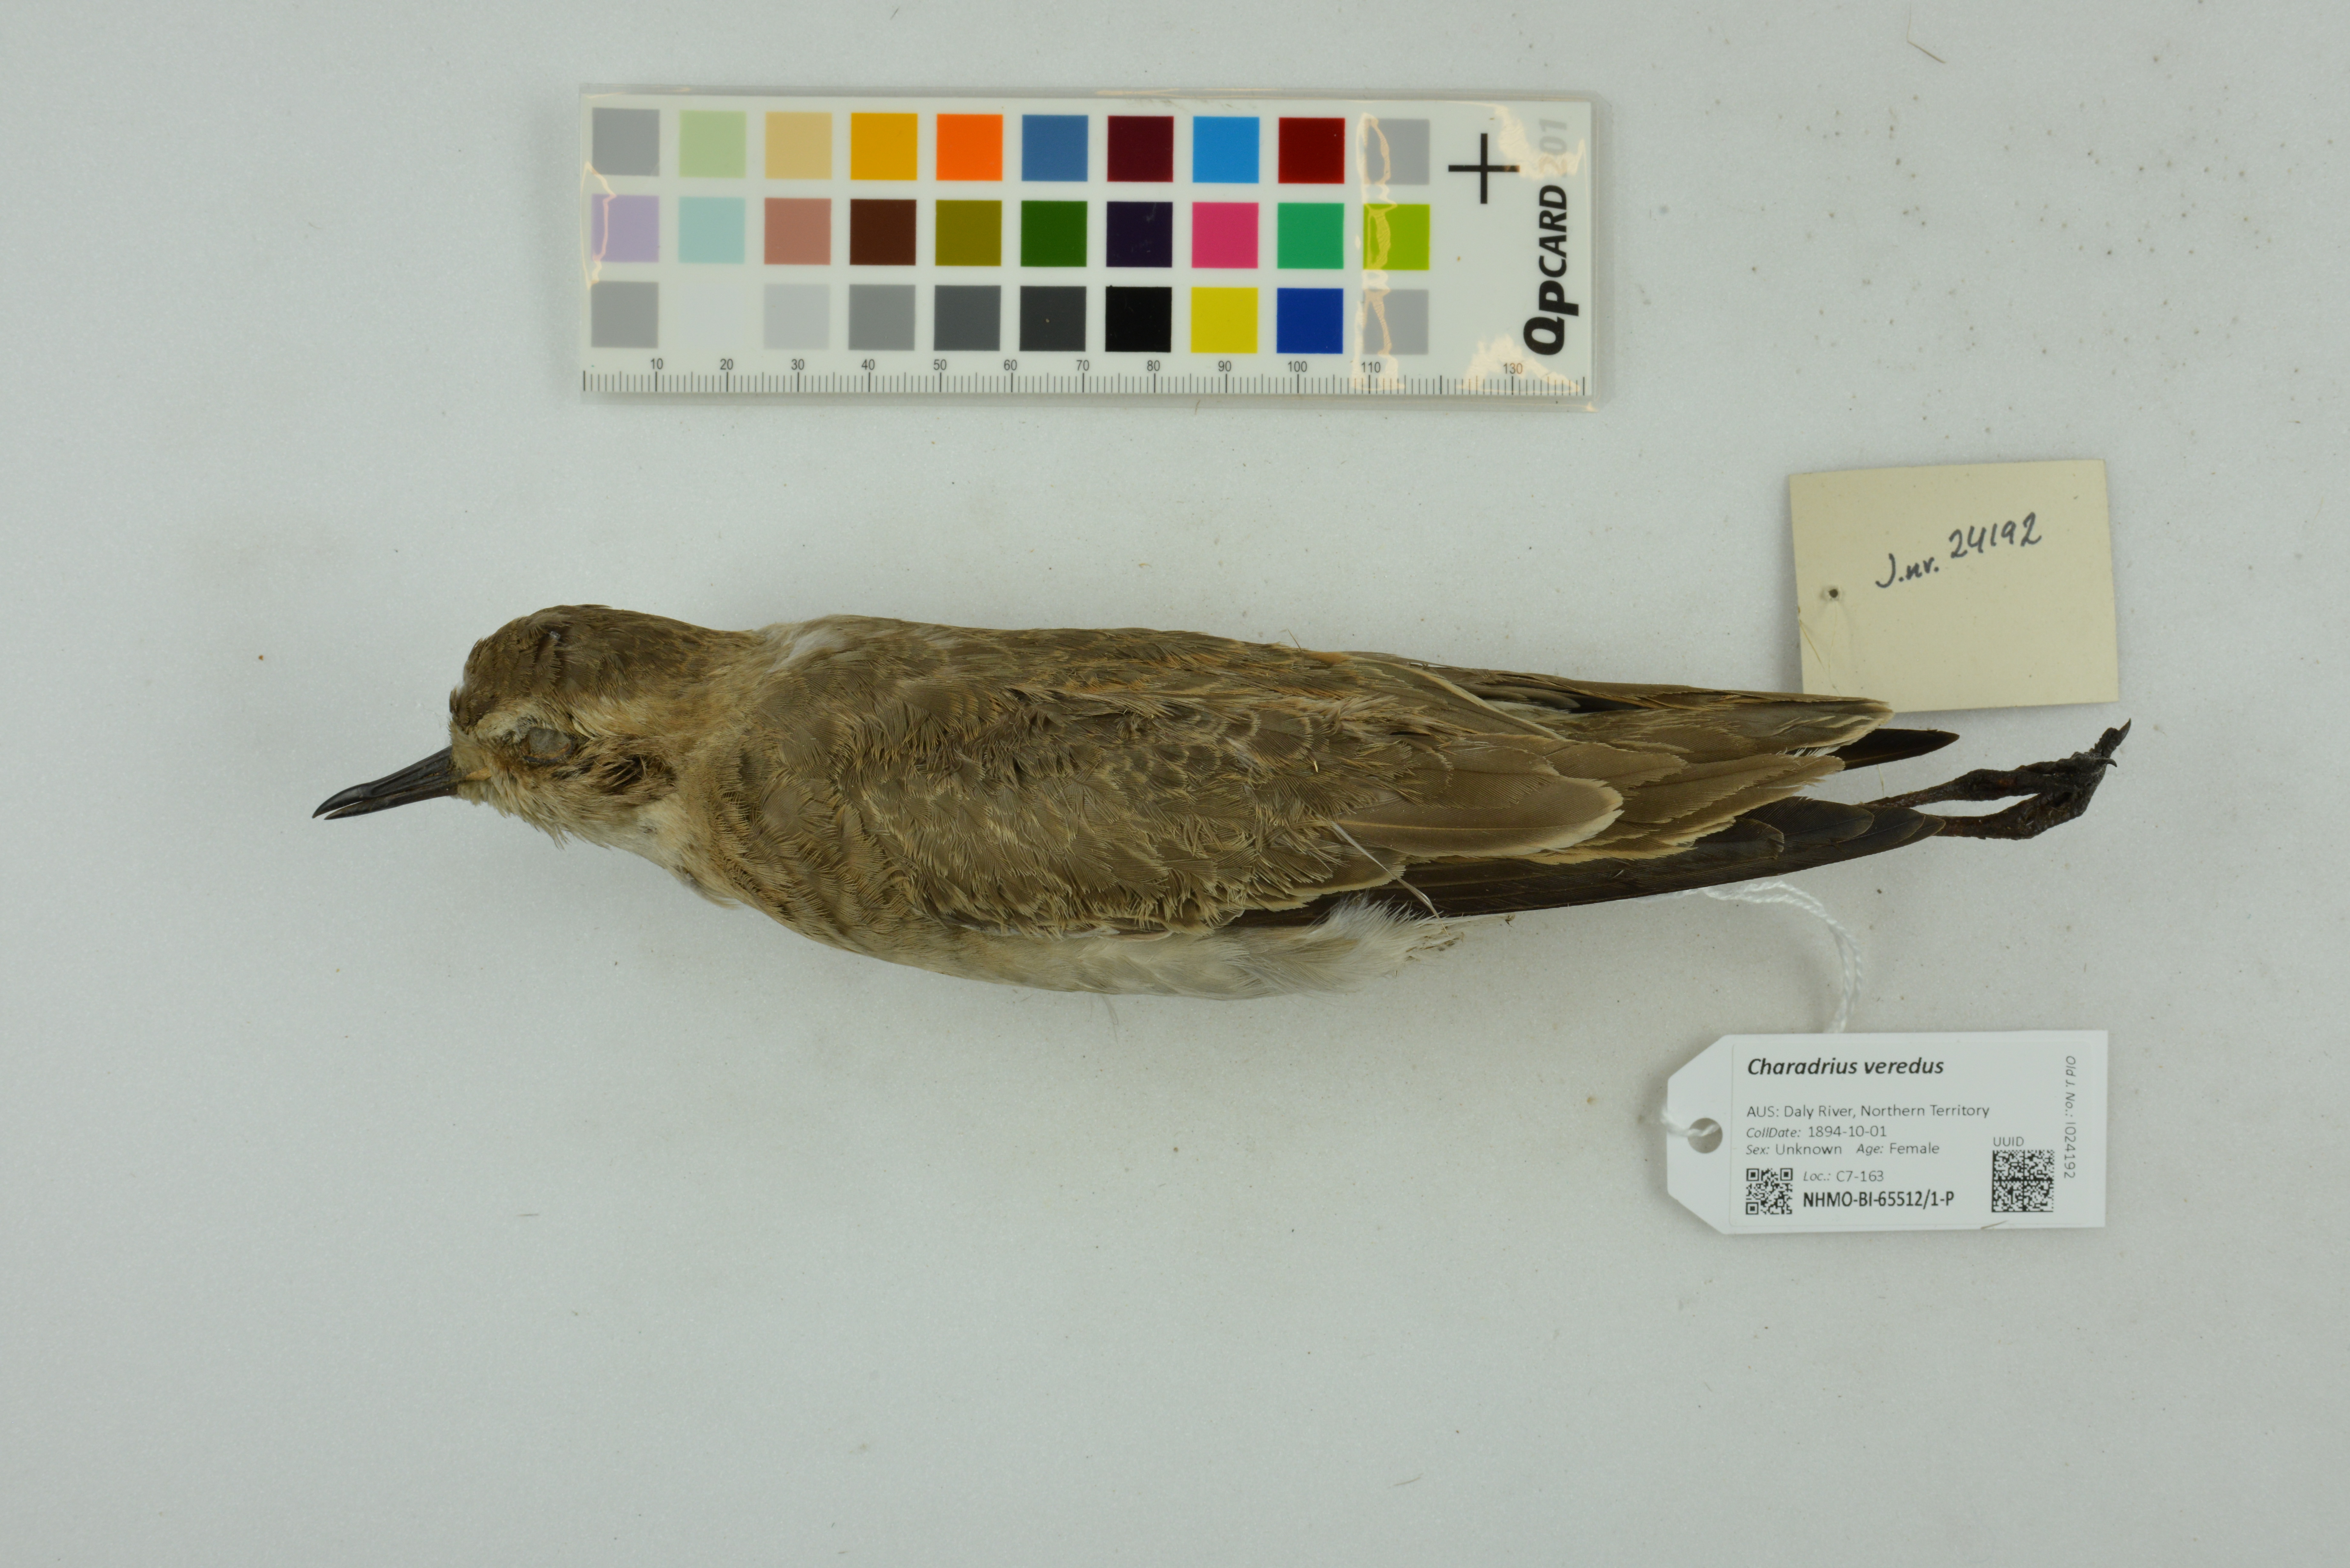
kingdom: Animalia
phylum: Chordata
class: Aves
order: Charadriiformes
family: Charadriidae
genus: Charadrius
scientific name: Charadrius veredus
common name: Oriental plover
